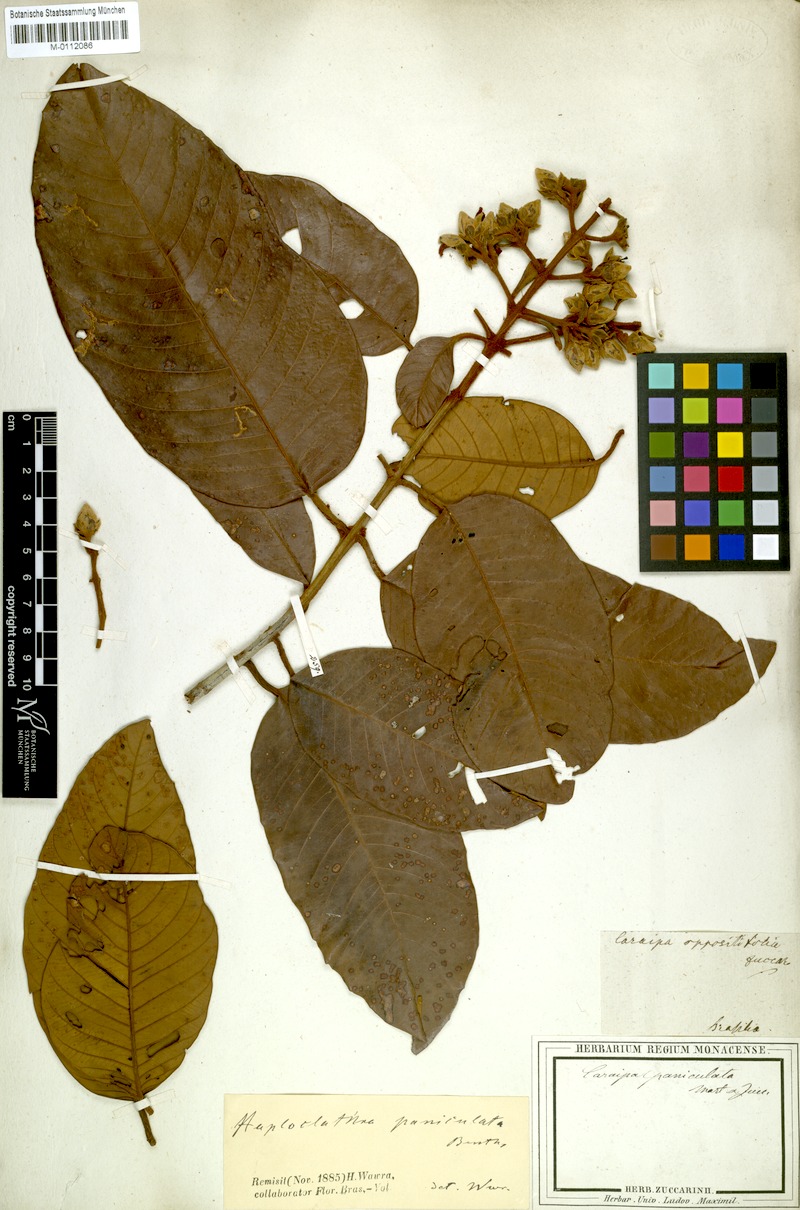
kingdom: Plantae
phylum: Tracheophyta
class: Magnoliopsida
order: Malpighiales
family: Calophyllaceae
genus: Haploclathra
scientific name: Haploclathra paniculata
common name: Red-wood
